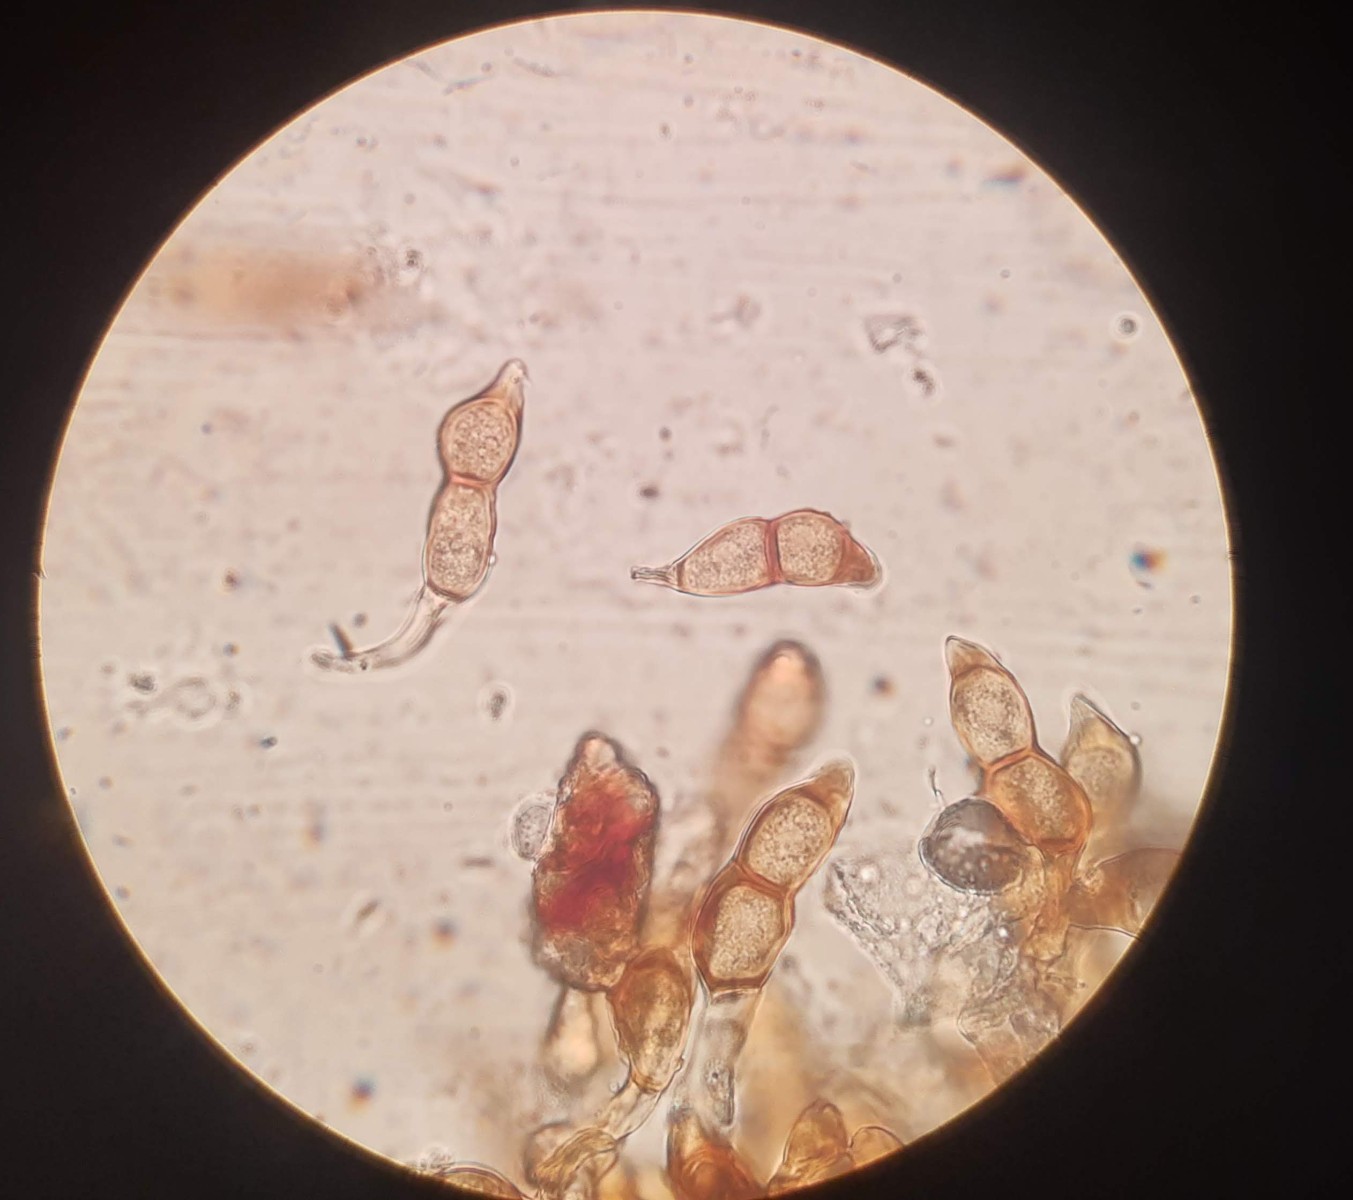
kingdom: Fungi
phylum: Basidiomycota
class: Pucciniomycetes
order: Pucciniales
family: Pucciniaceae
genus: Puccinia
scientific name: Puccinia glechomatis
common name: Ground ivy rust
